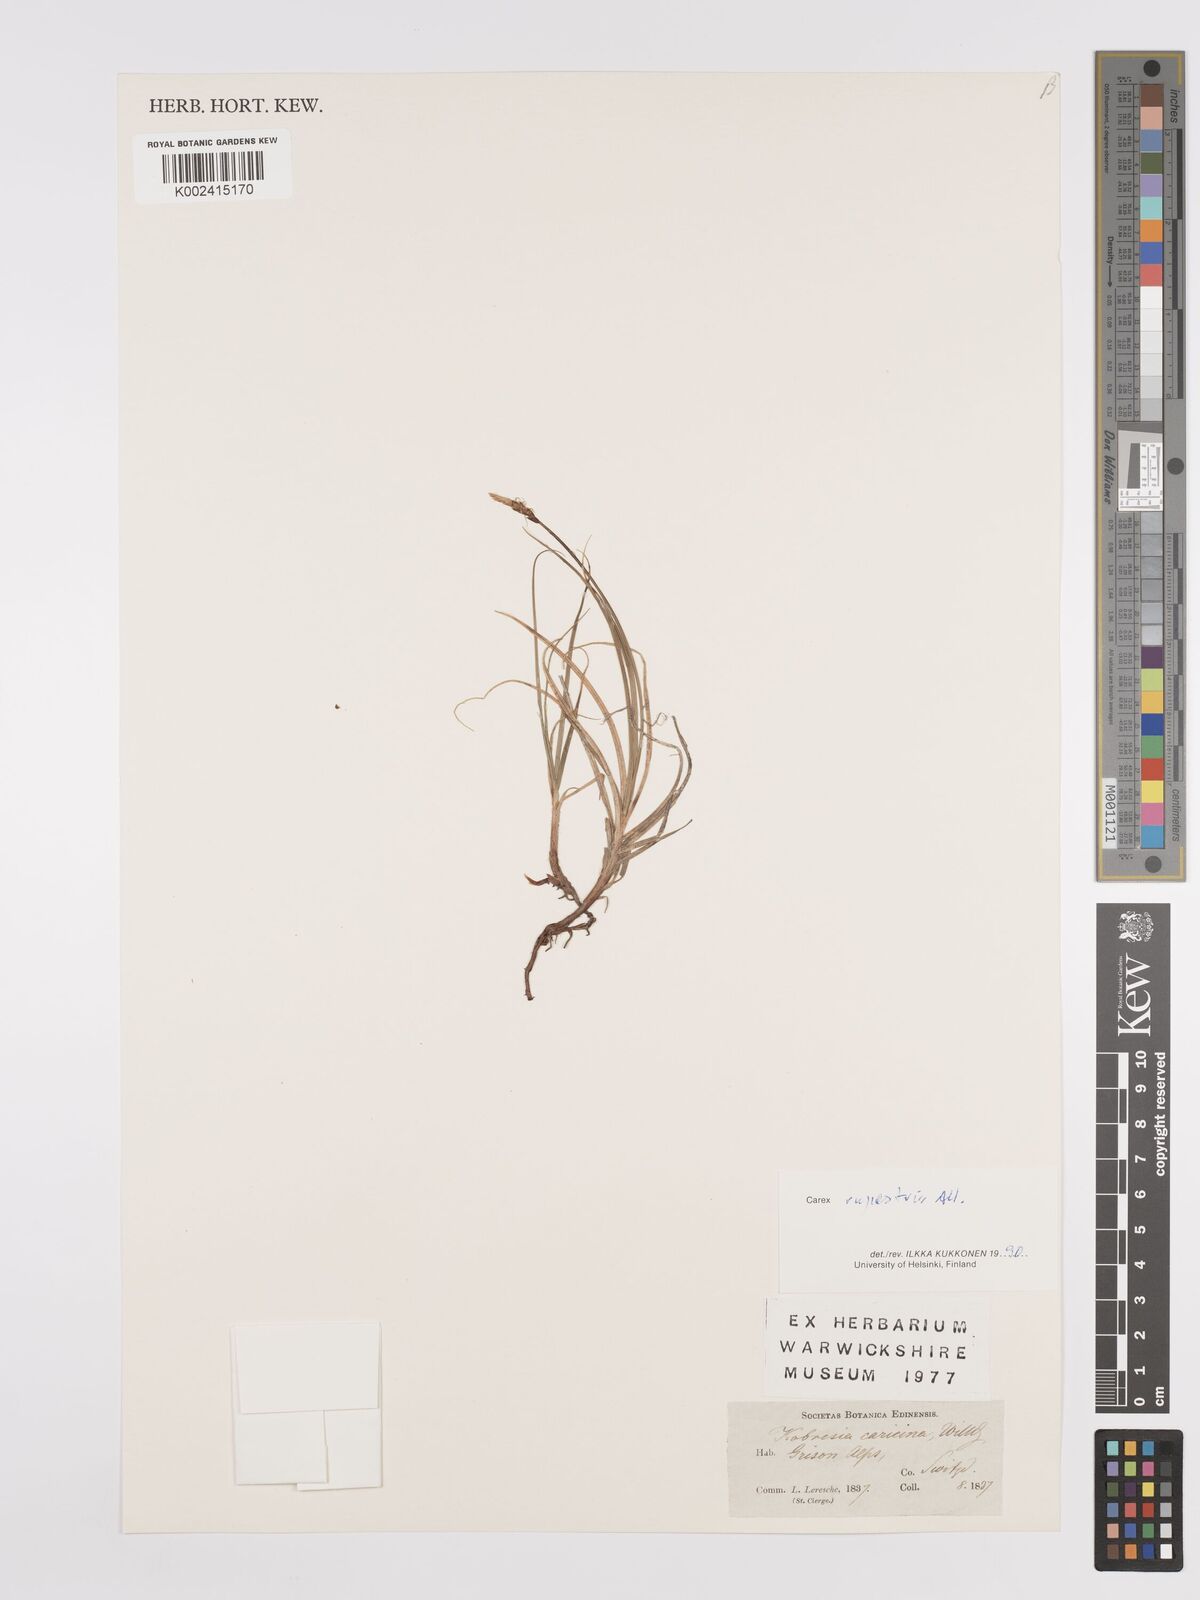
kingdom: Plantae
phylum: Tracheophyta
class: Liliopsida
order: Poales
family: Cyperaceae
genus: Carex
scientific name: Carex rupestris
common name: Rock sedge
